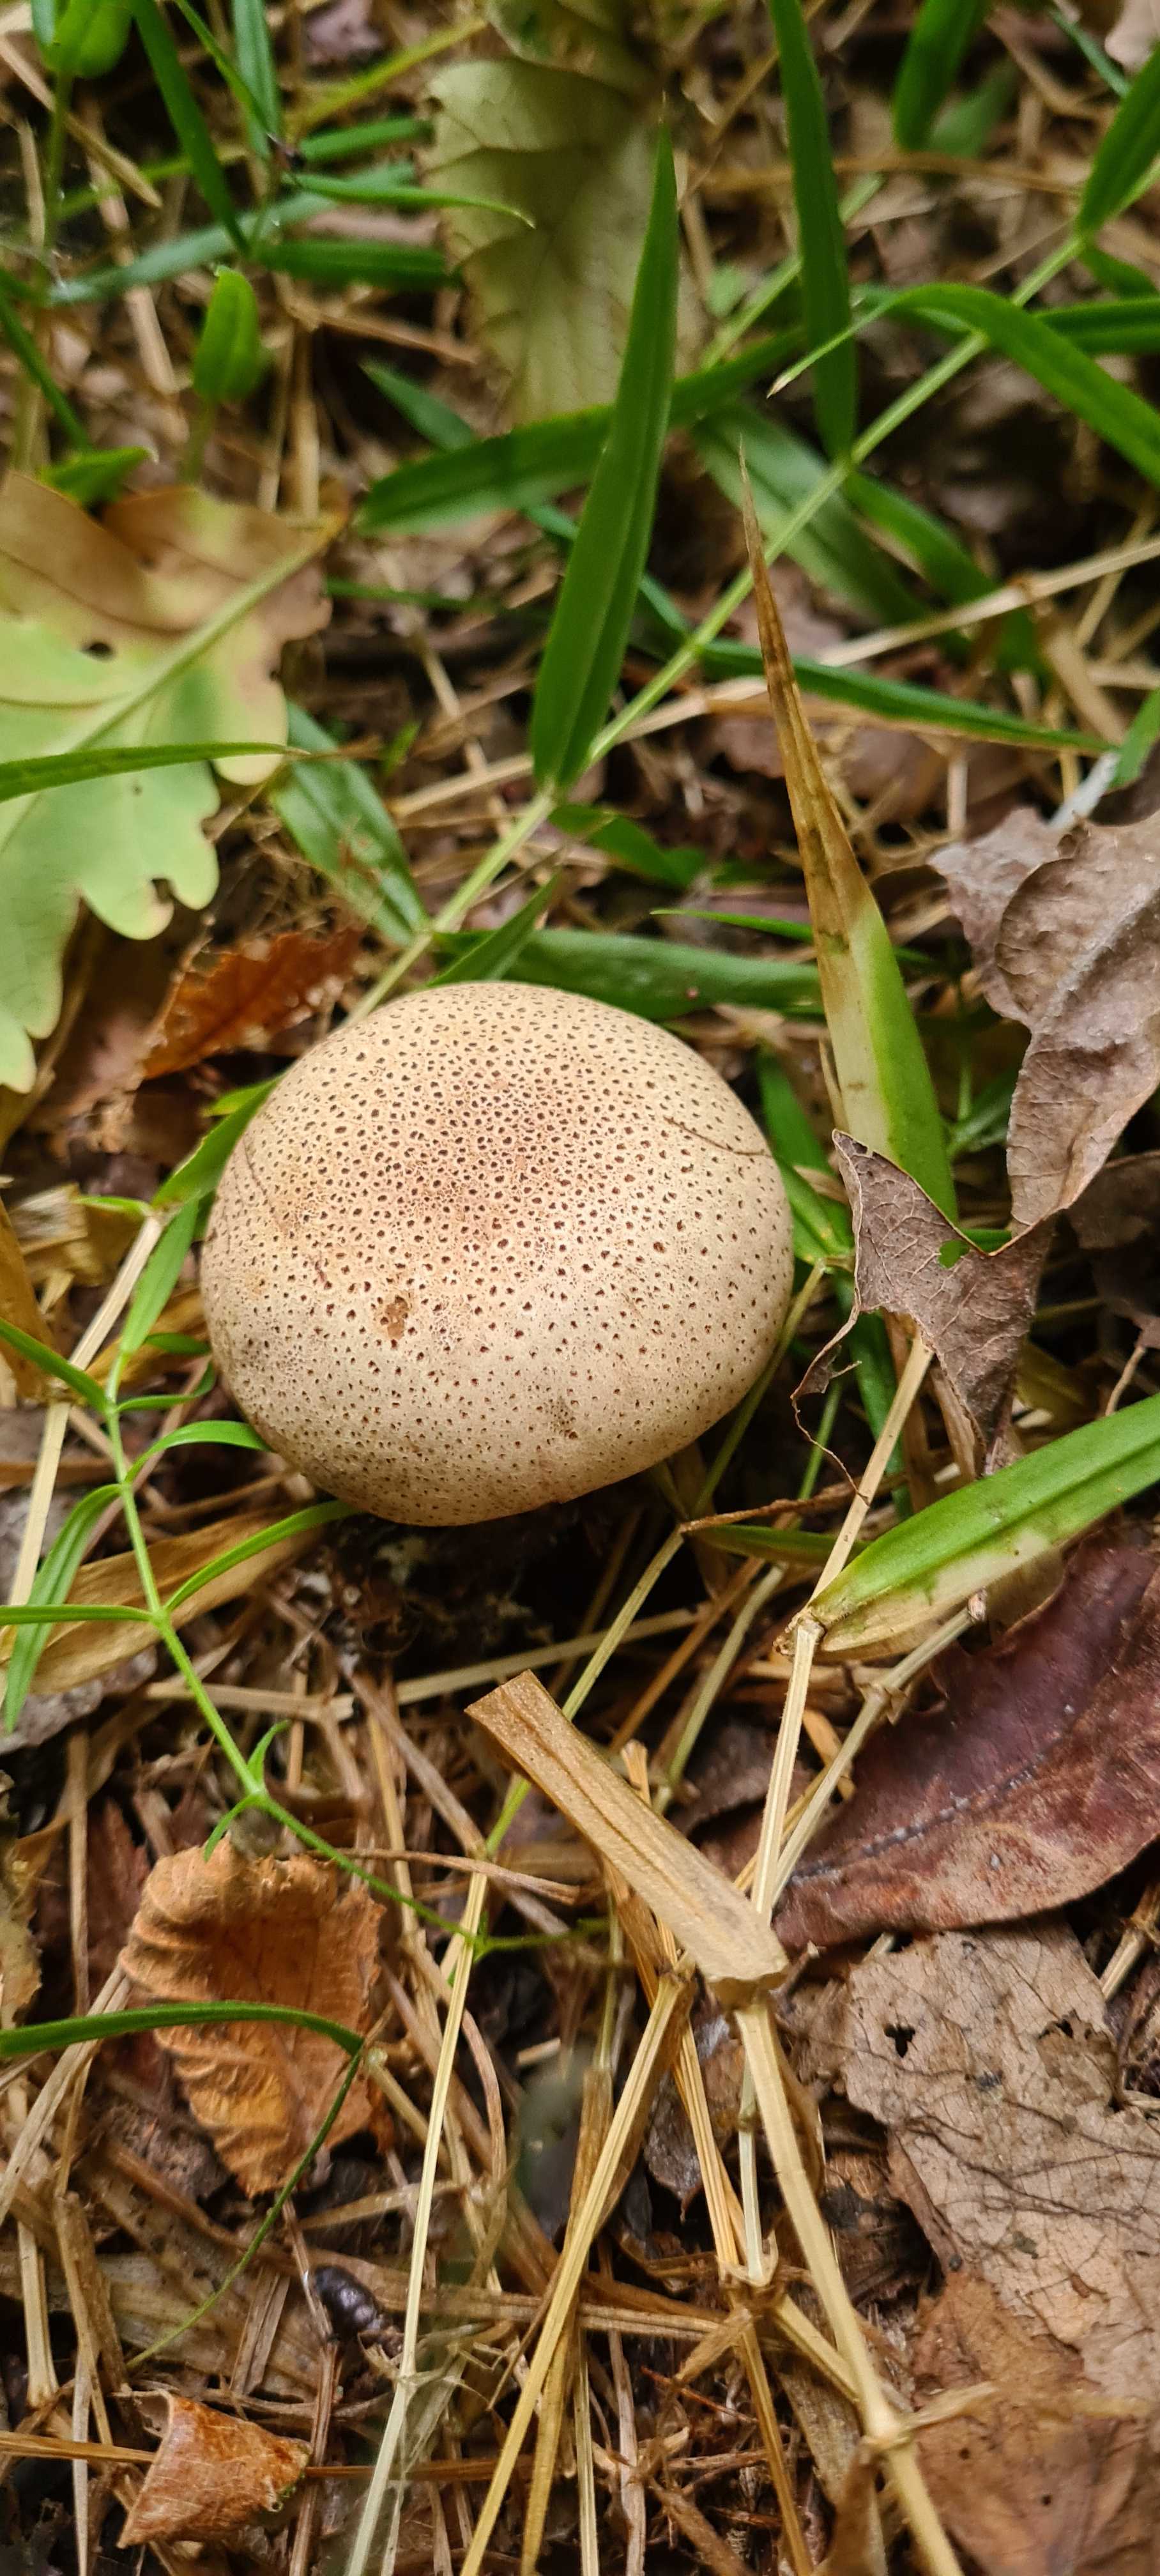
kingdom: Fungi
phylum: Basidiomycota
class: Agaricomycetes
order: Boletales
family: Sclerodermataceae
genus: Scleroderma
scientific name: Scleroderma
